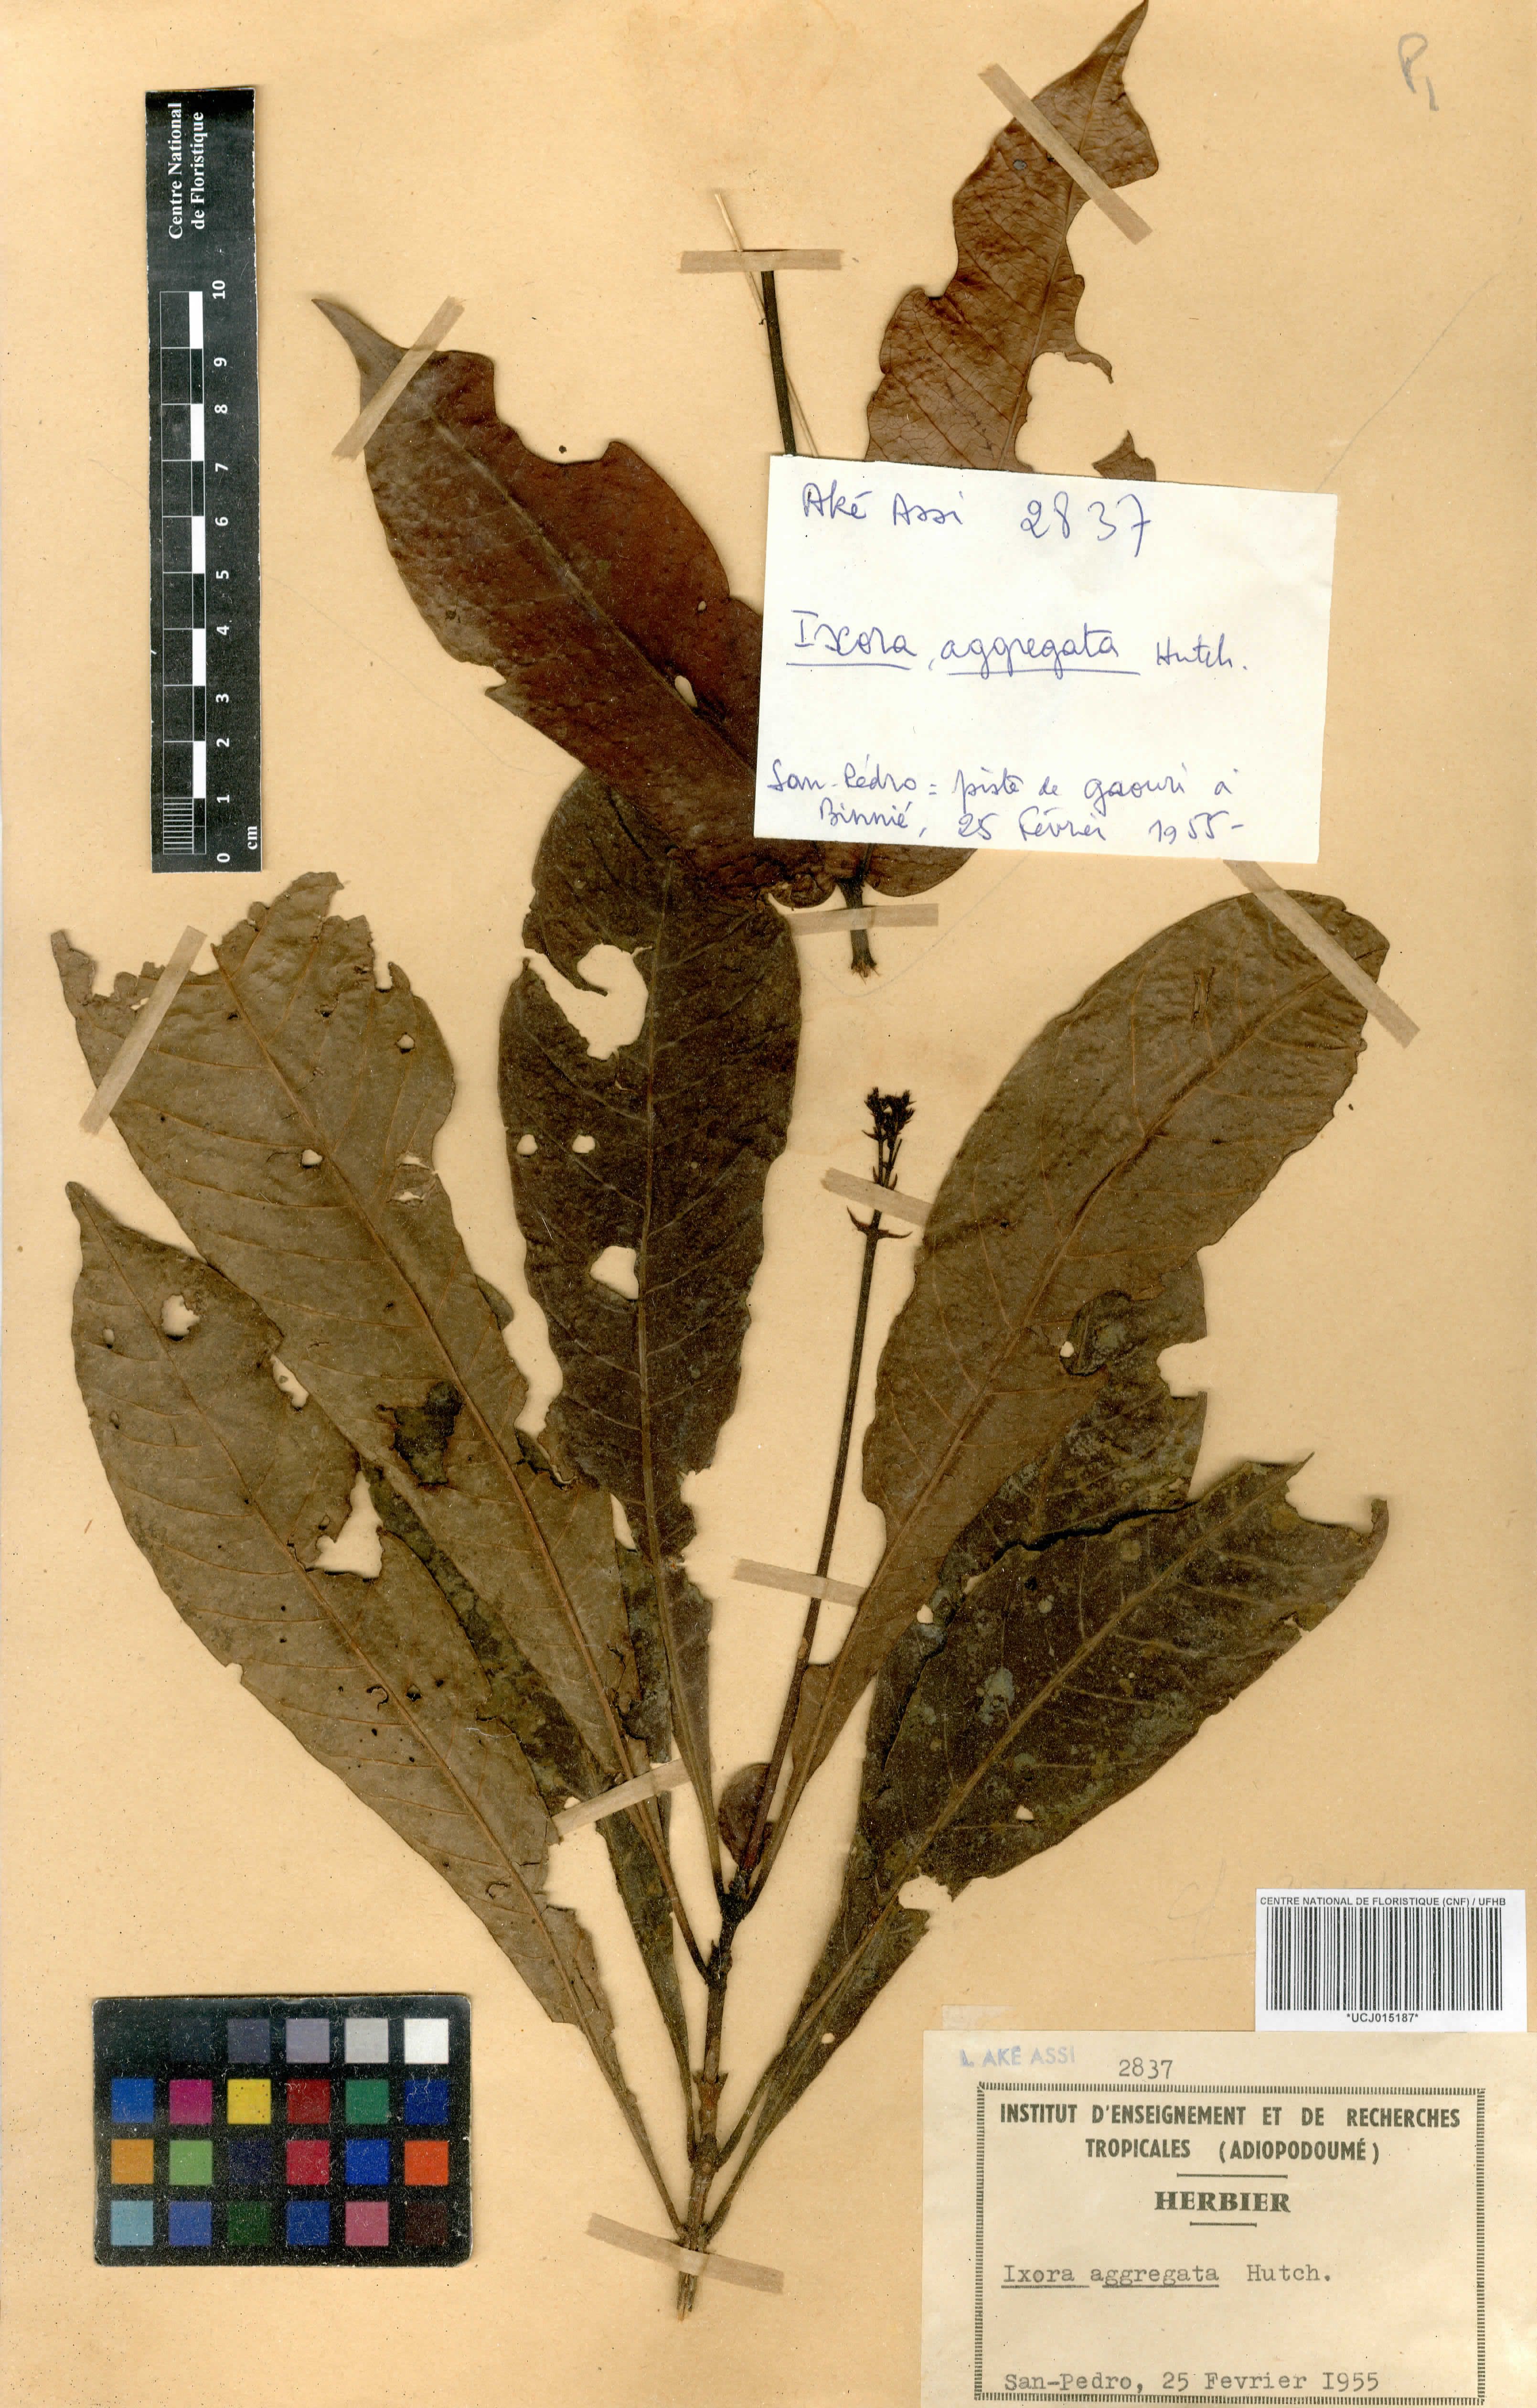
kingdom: Plantae
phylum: Tracheophyta
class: Magnoliopsida
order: Gentianales
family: Rubiaceae
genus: Ixora
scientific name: Ixora aggregata
